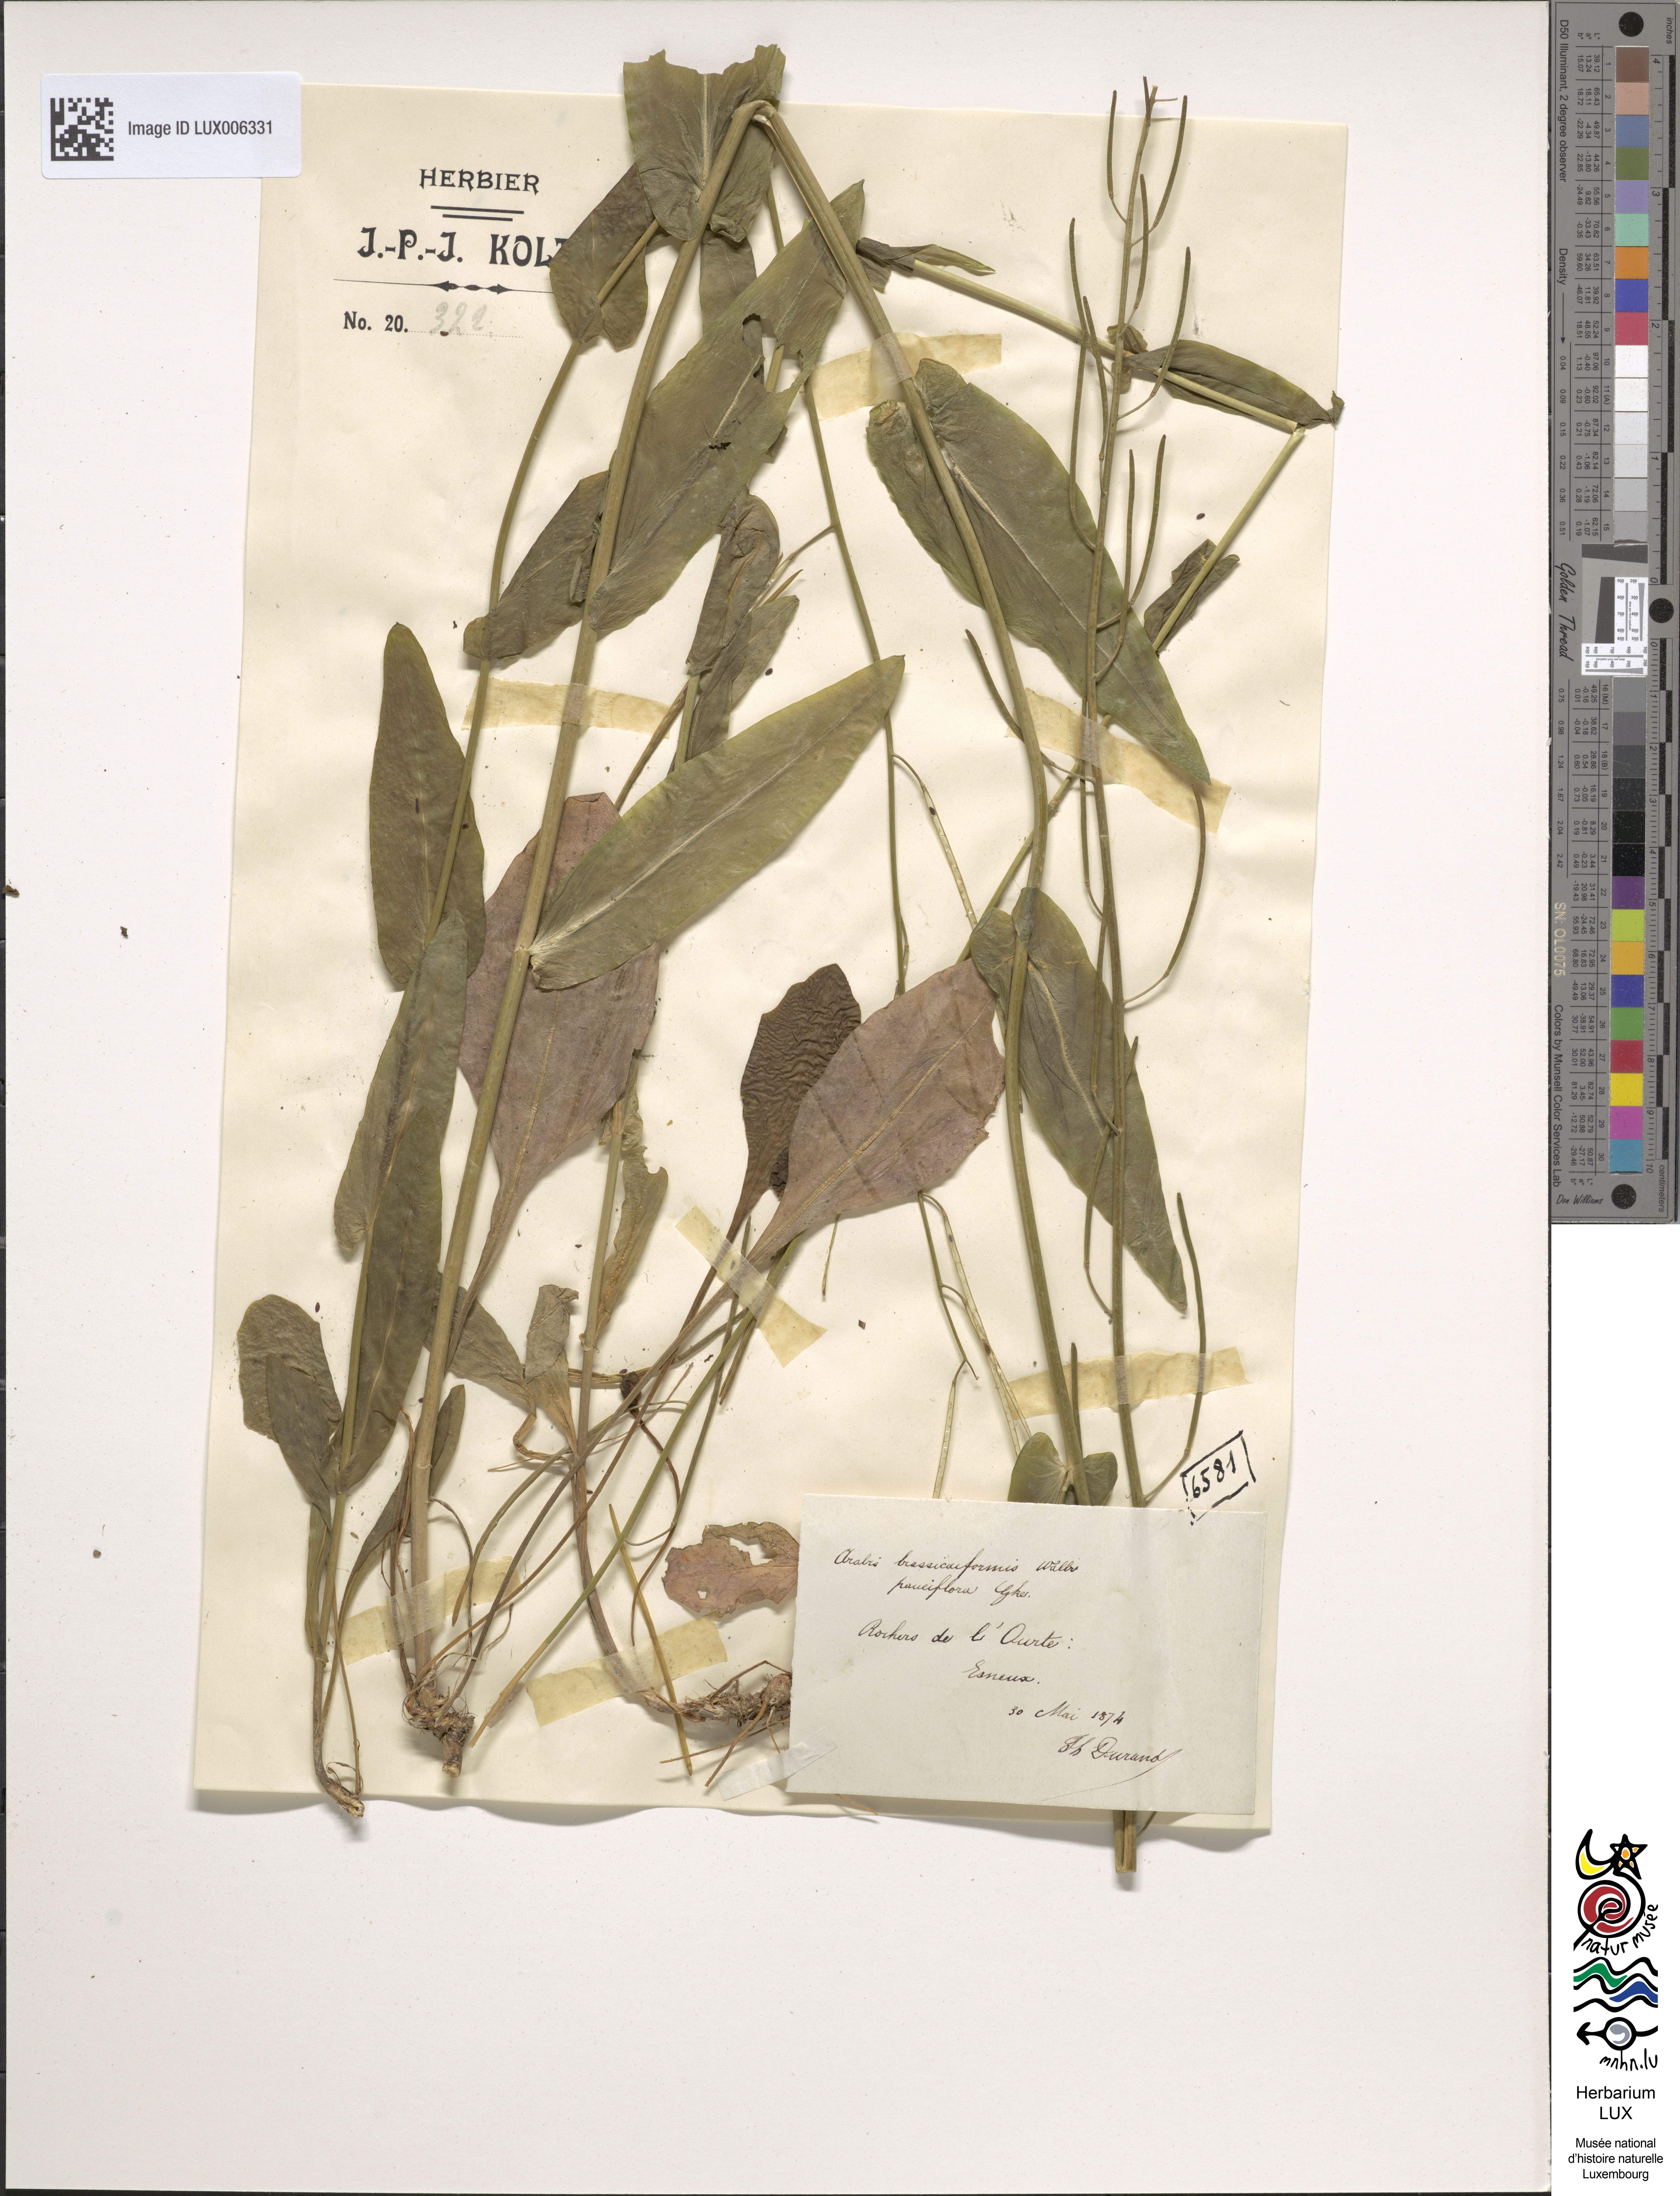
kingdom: Plantae
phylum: Tracheophyta
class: Magnoliopsida
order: Brassicales
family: Brassicaceae
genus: Fourraea
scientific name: Fourraea alpina
